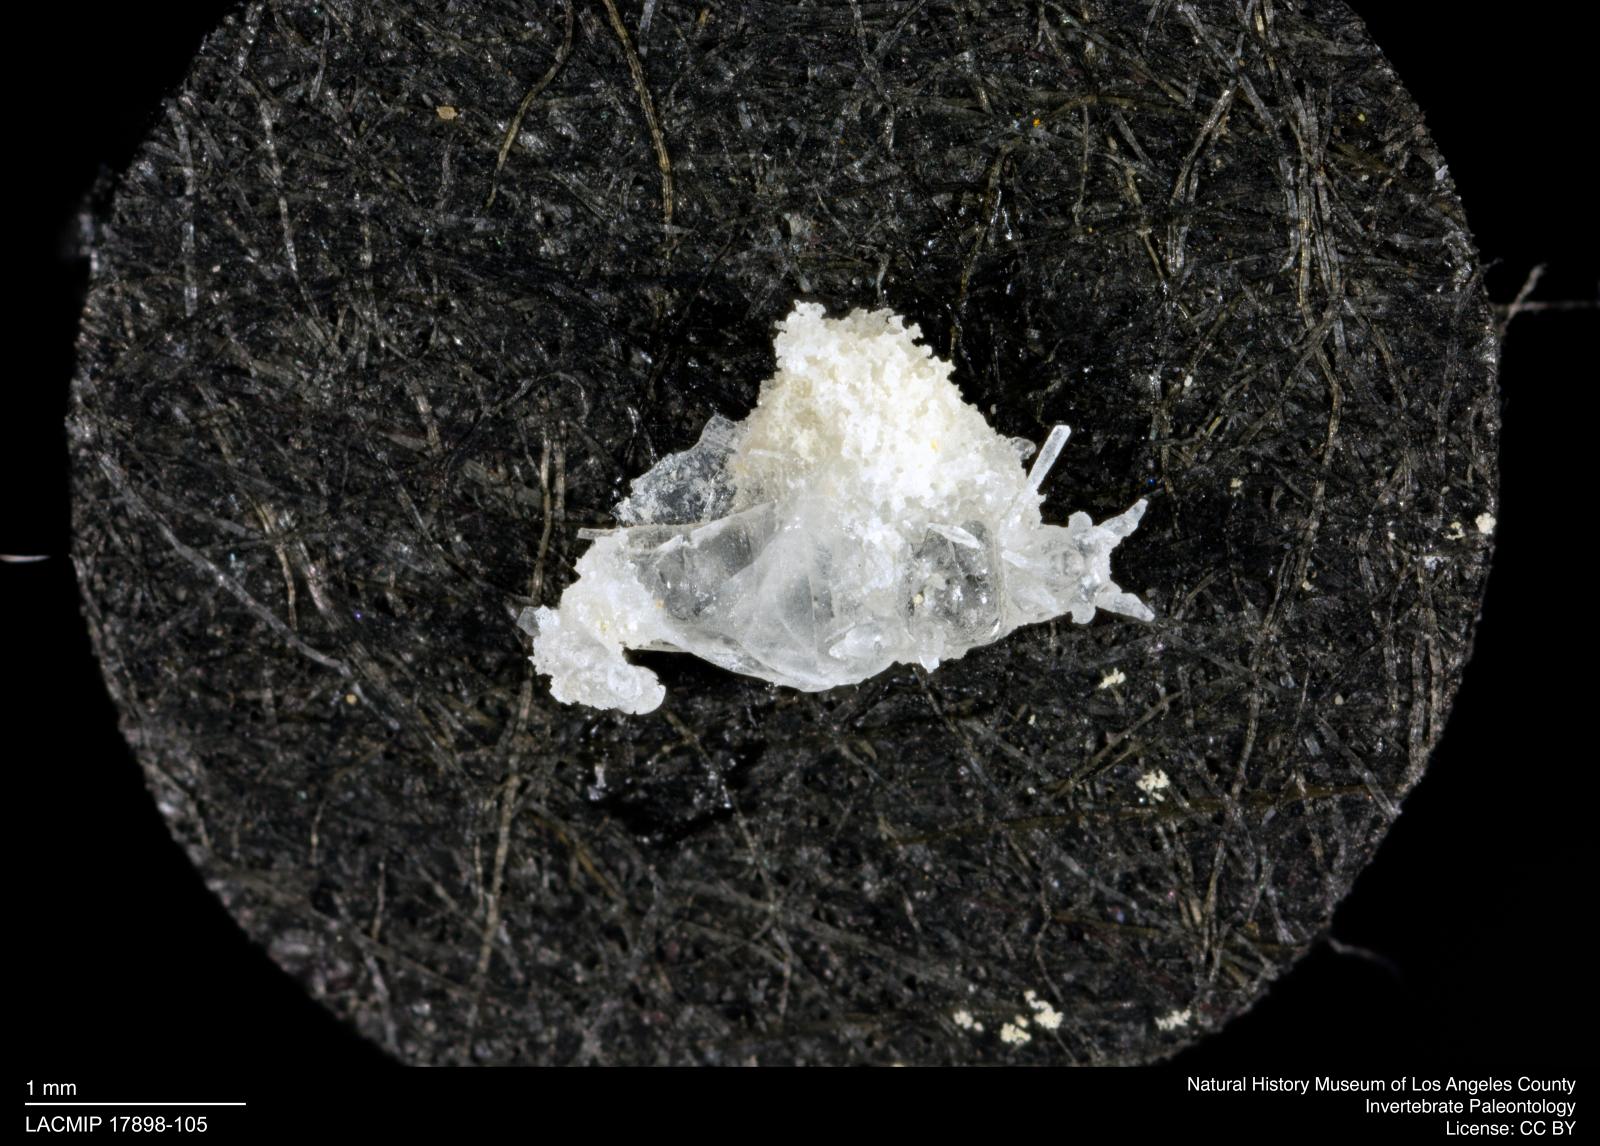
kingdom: Animalia
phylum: Arthropoda
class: Insecta
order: Hemiptera
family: Aphididae
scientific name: Aphididae
